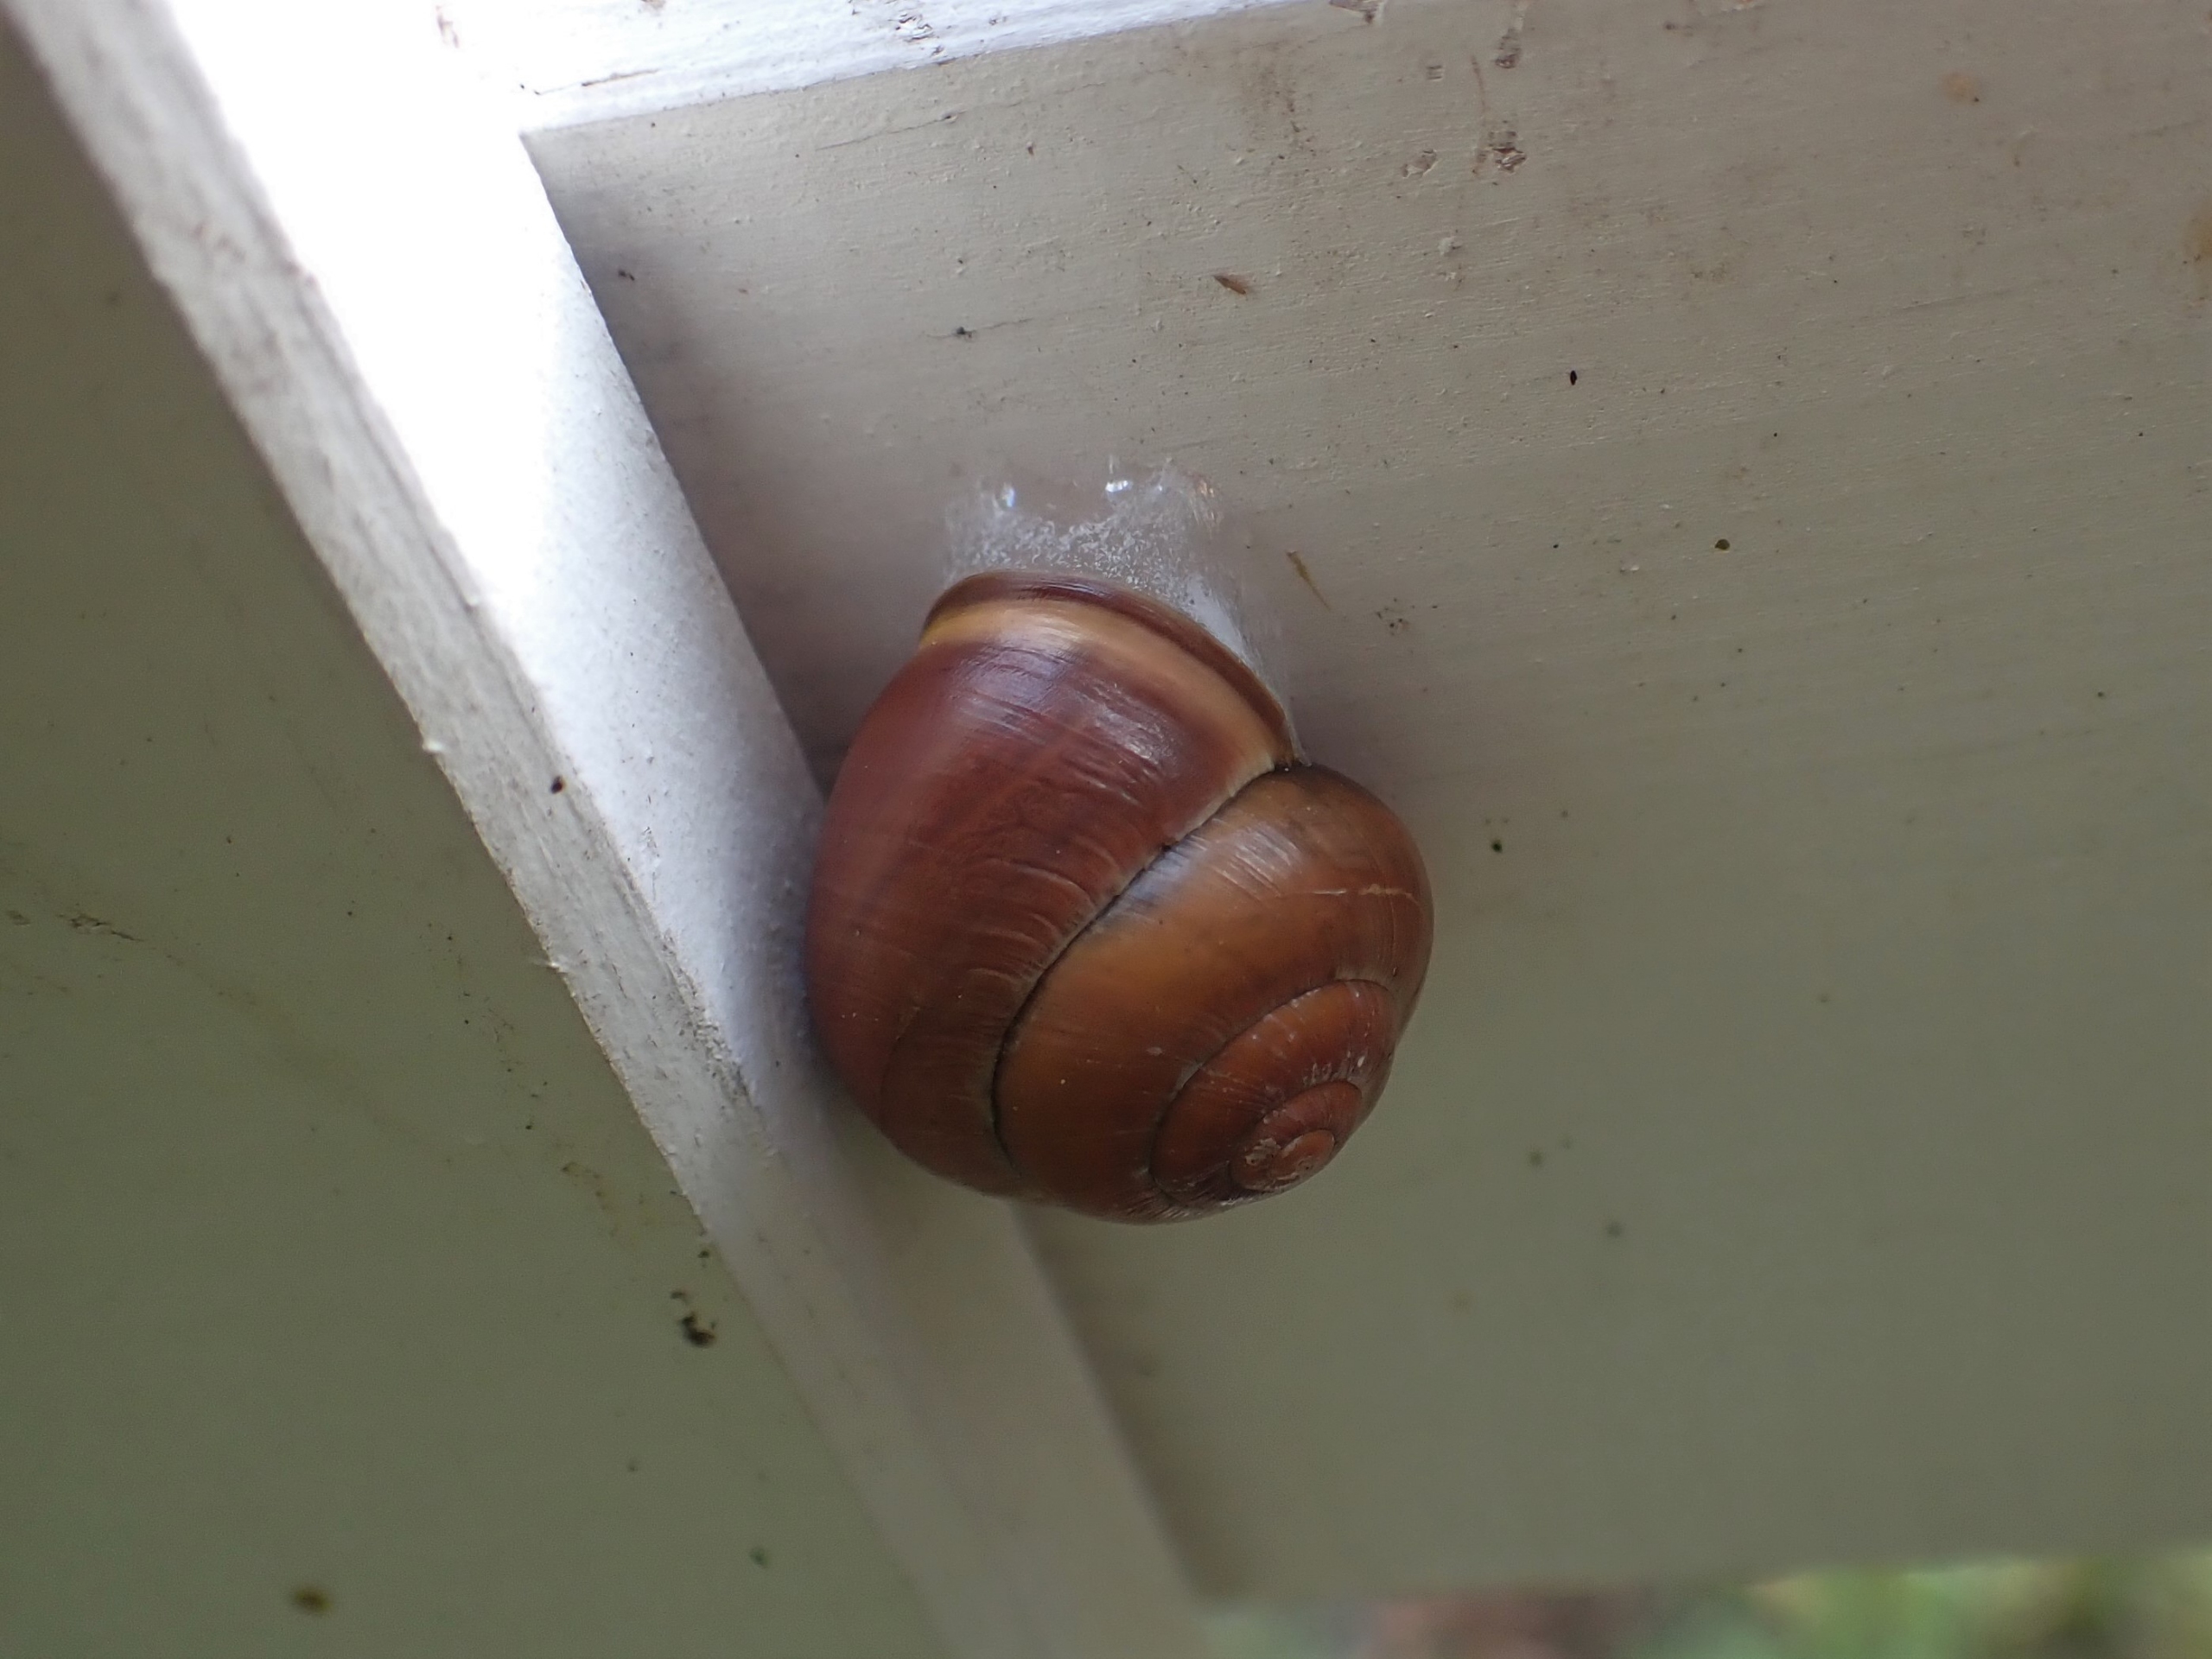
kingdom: Animalia
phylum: Mollusca
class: Gastropoda
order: Stylommatophora
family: Helicidae
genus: Cepaea
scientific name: Cepaea nemoralis
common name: Lundsnegl
